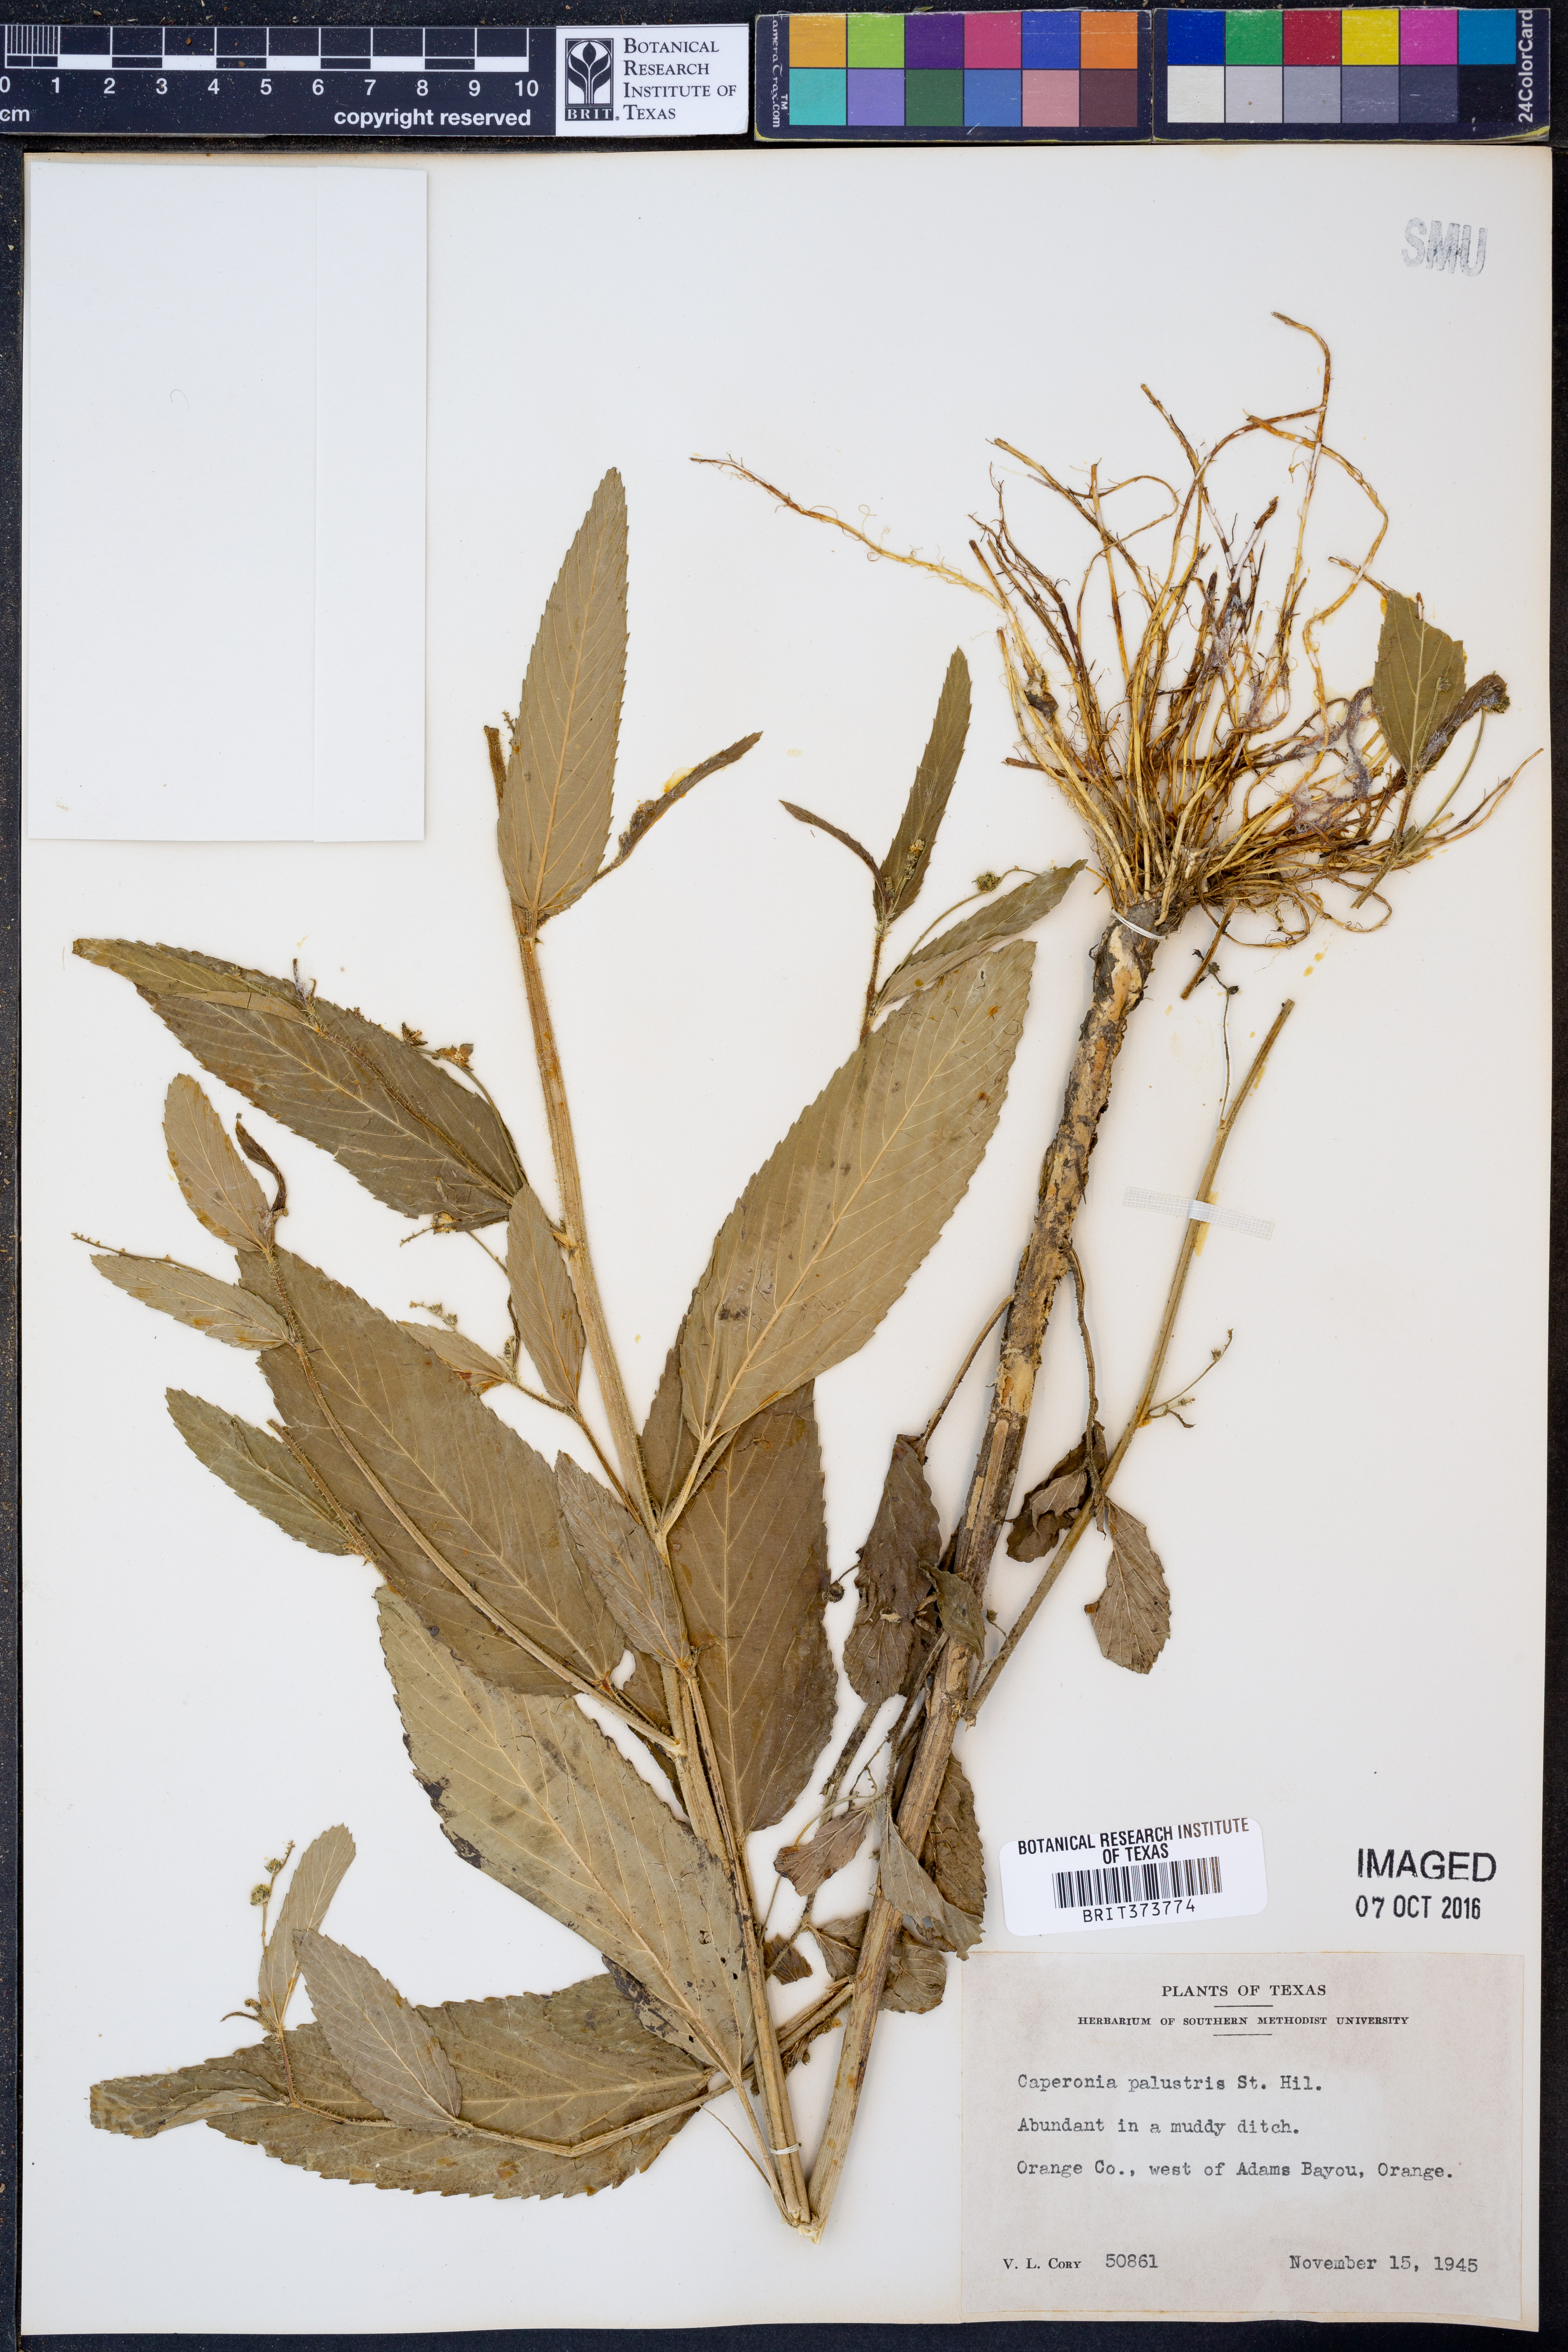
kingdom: Plantae
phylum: Tracheophyta
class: Magnoliopsida
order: Malpighiales
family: Euphorbiaceae
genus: Caperonia
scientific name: Caperonia palustris
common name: Sacatrapo
